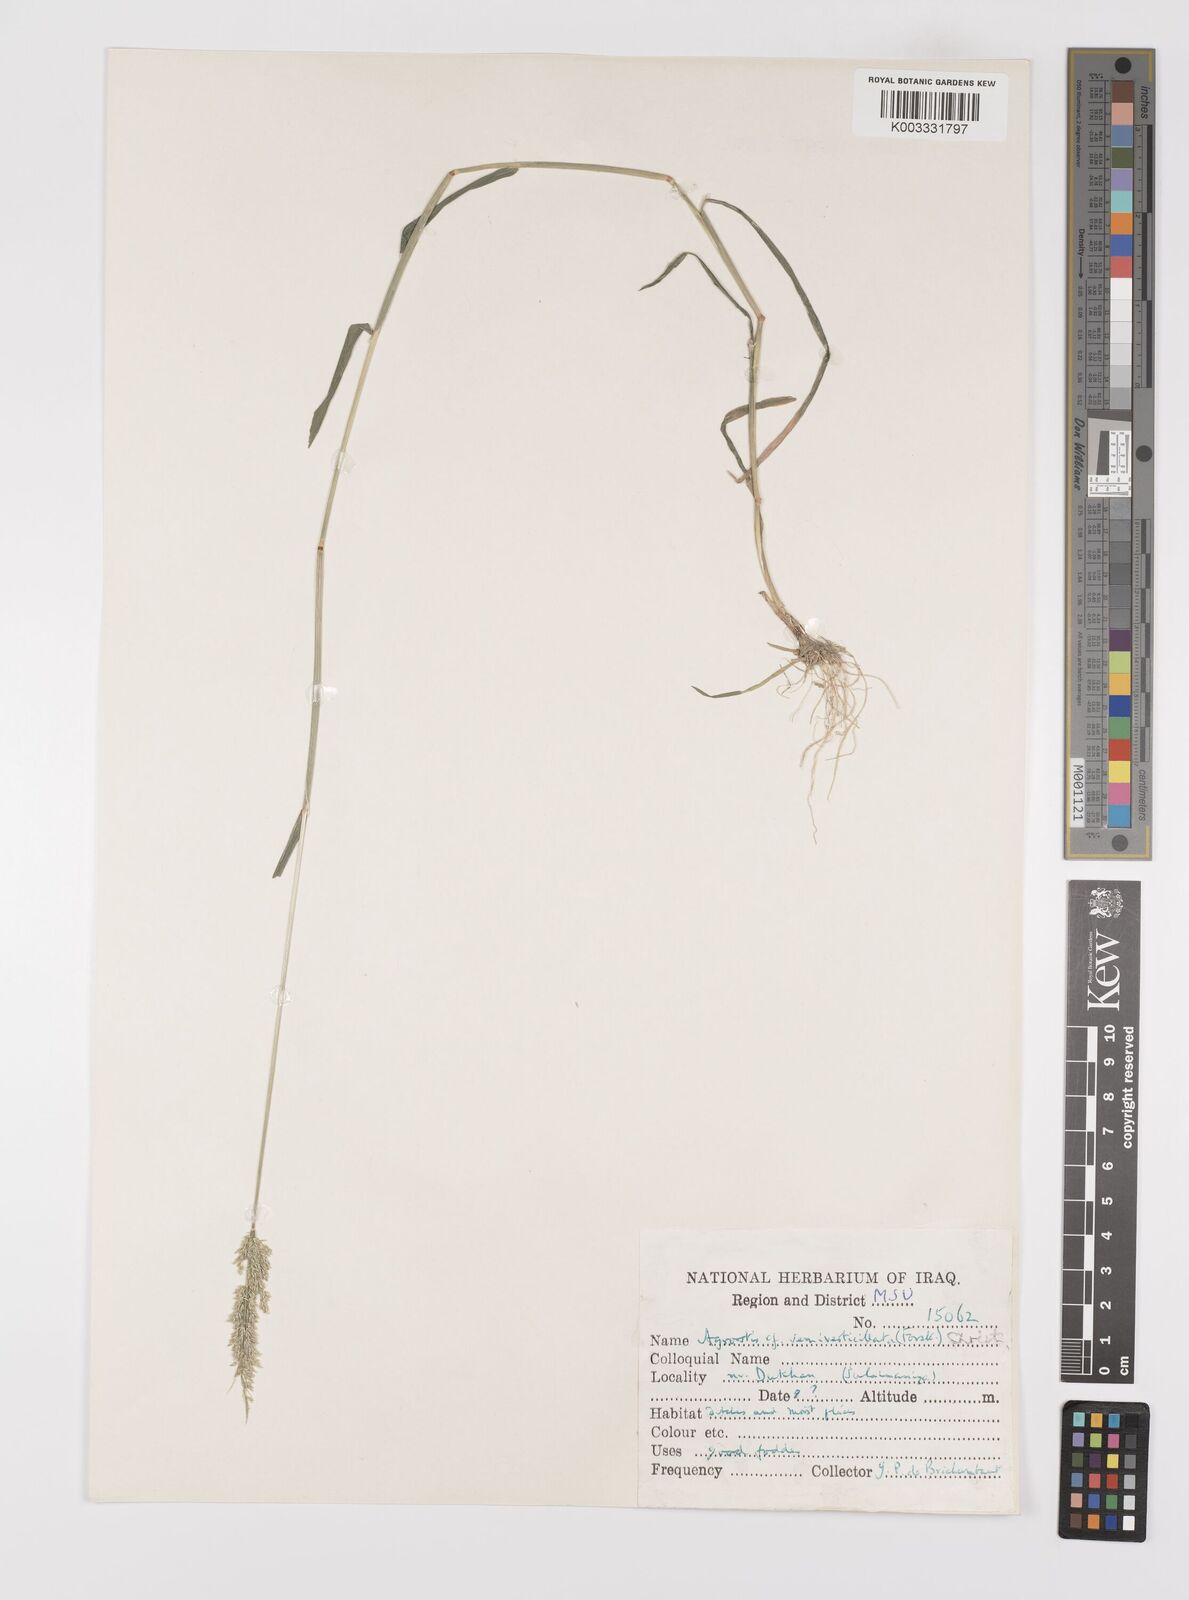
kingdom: Plantae
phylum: Tracheophyta
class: Liliopsida
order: Poales
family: Poaceae
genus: Polypogon
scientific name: Polypogon viridis
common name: Water bent
